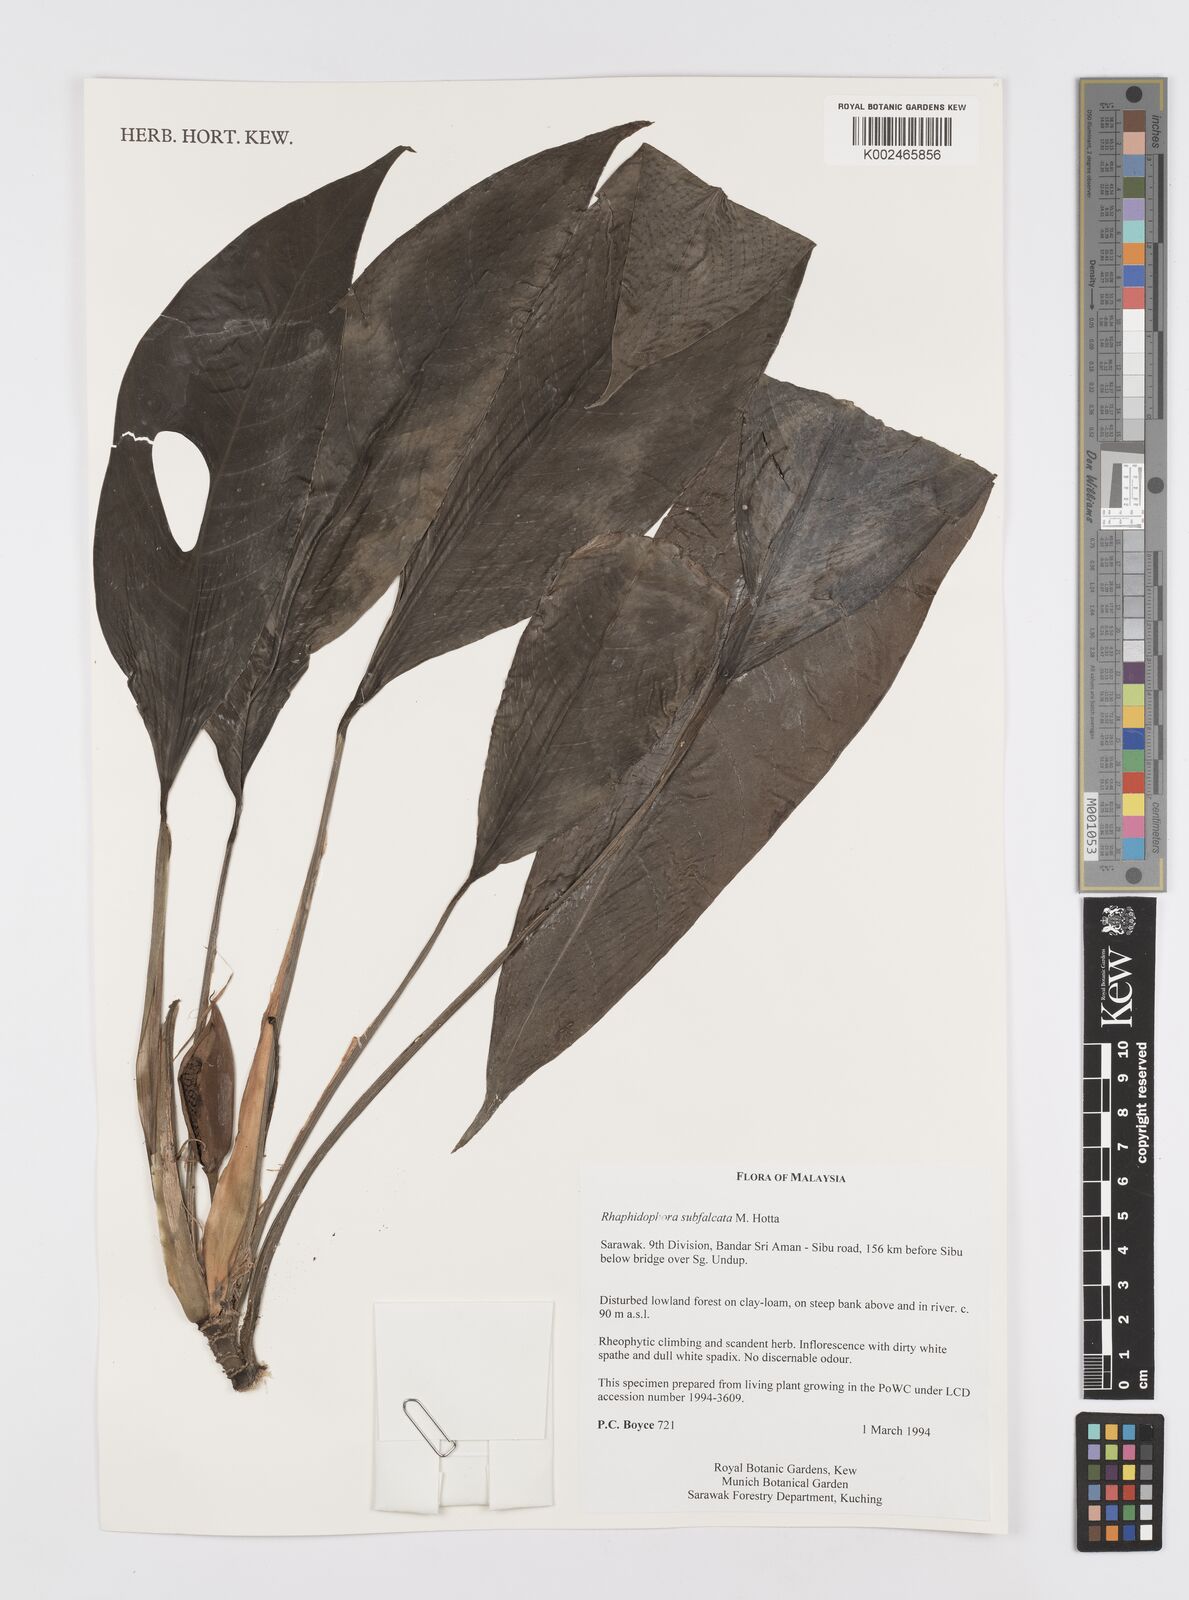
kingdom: Plantae
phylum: Tracheophyta
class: Liliopsida
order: Alismatales
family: Araceae
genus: Rhaphidophora
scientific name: Rhaphidophora megasperma
